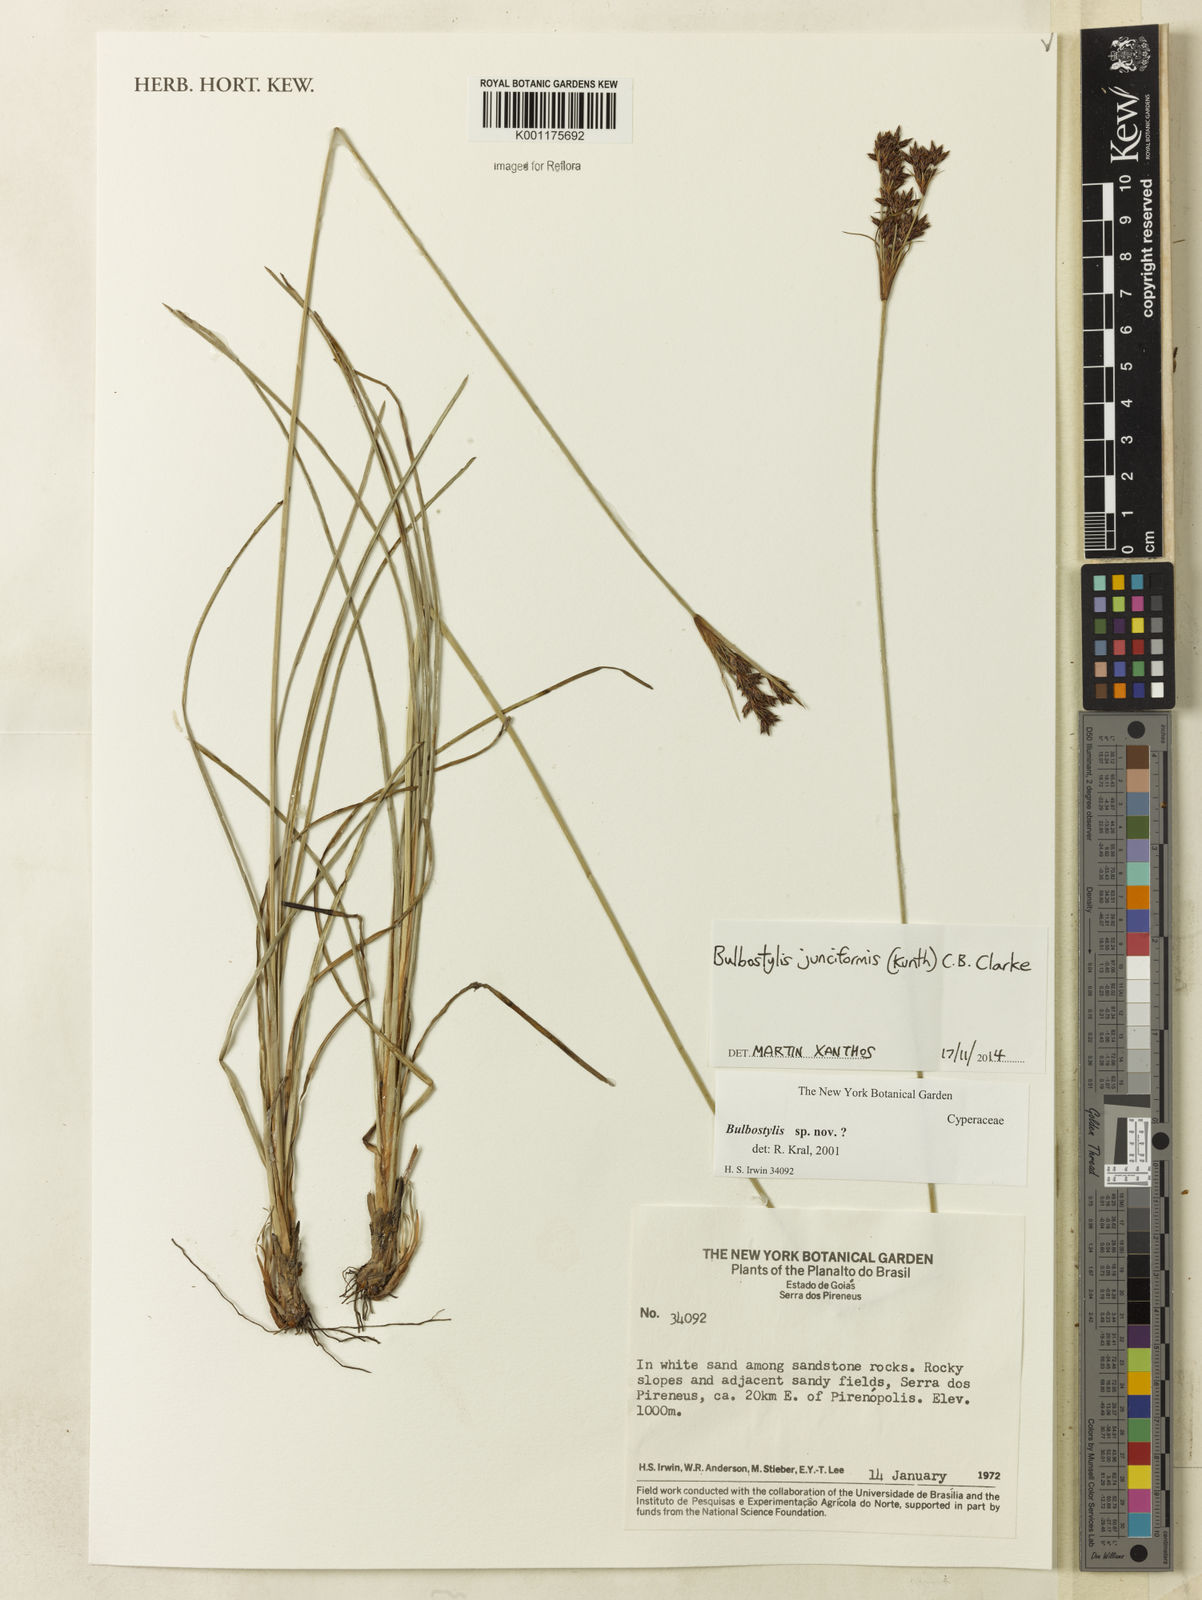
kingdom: Plantae
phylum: Tracheophyta
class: Liliopsida
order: Poales
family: Cyperaceae
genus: Bulbostylis
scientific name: Bulbostylis junciformis
